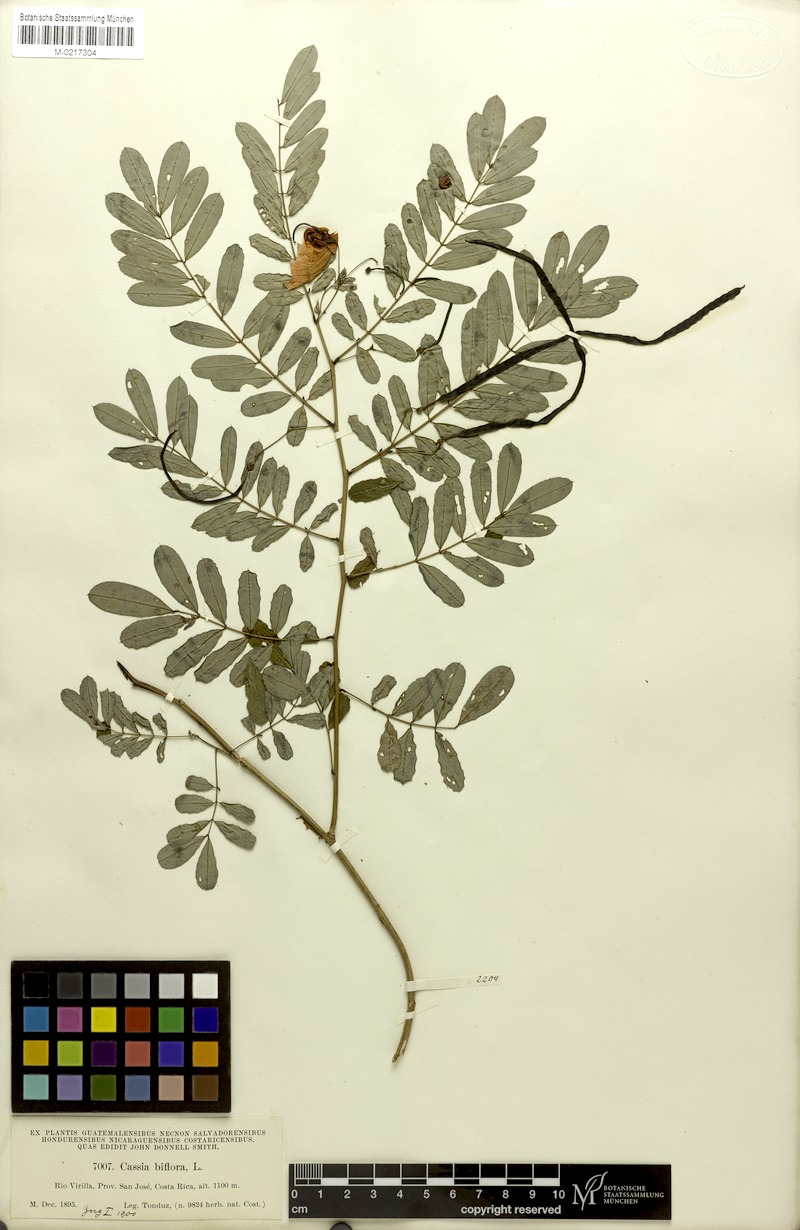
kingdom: Plantae
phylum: Tracheophyta
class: Magnoliopsida
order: Fabales
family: Fabaceae
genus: Senna
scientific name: Senna pallida
